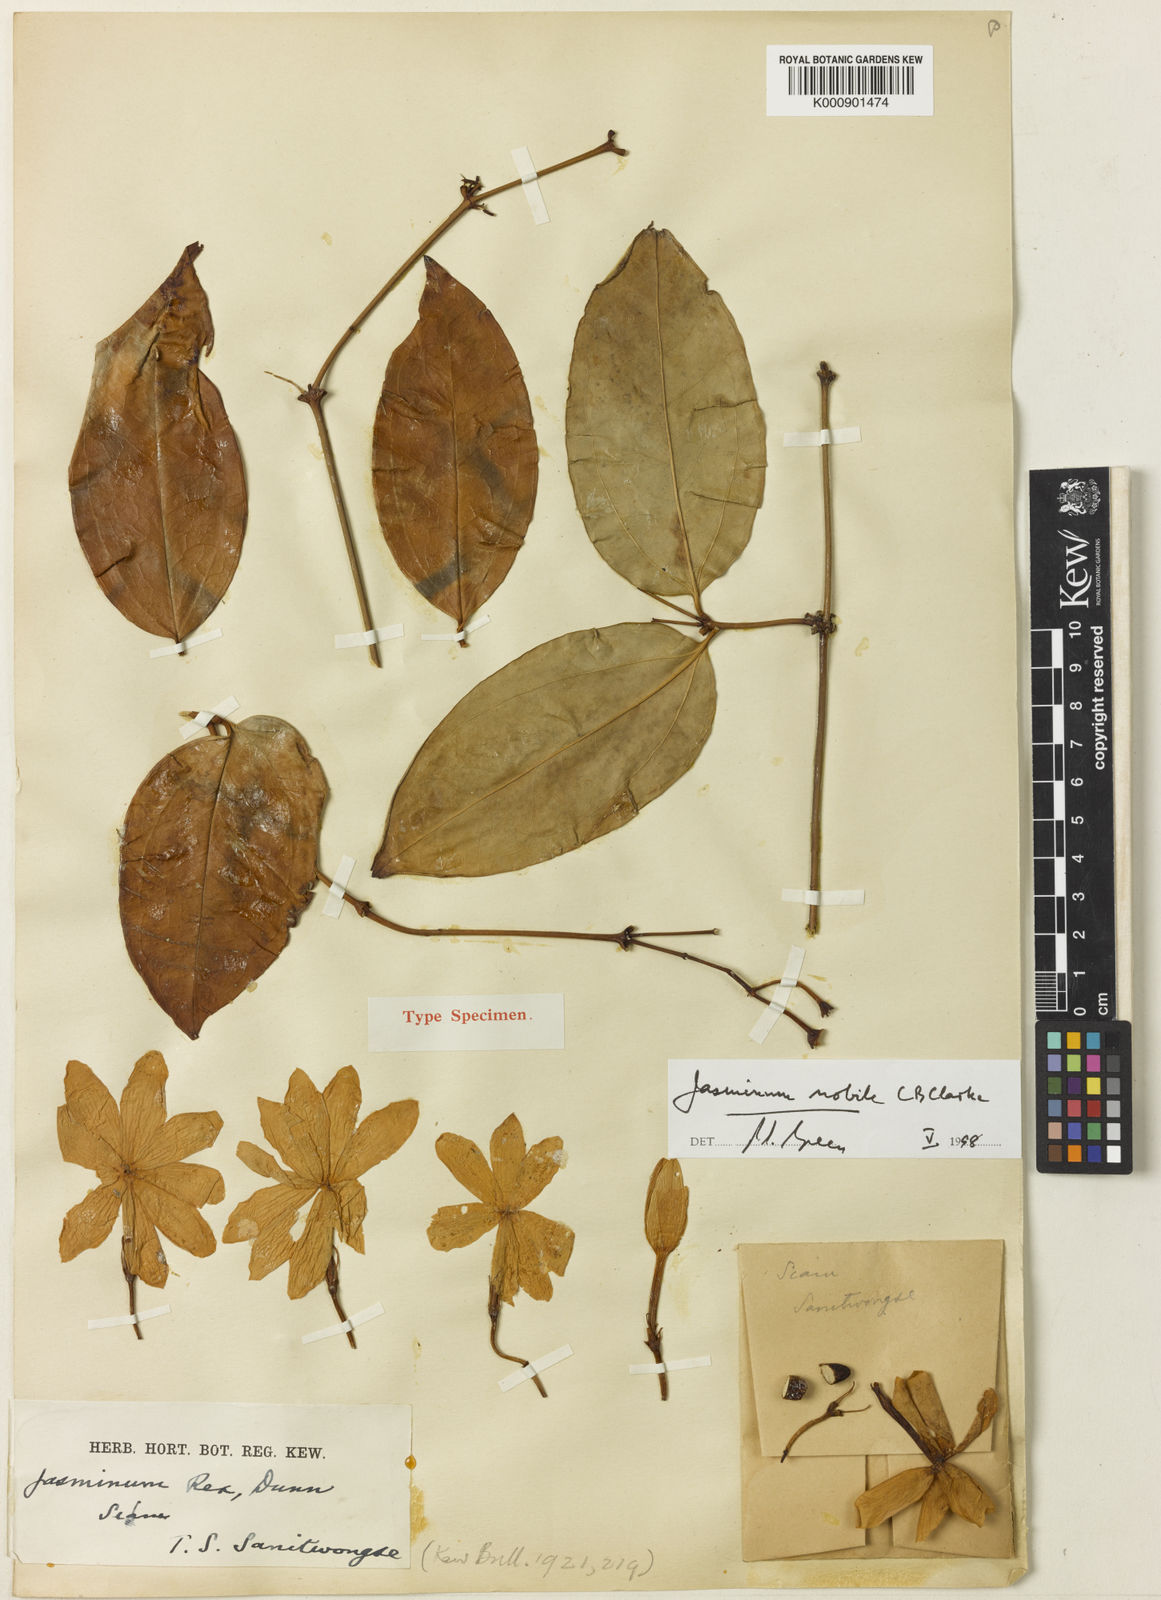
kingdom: Plantae
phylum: Tracheophyta
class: Magnoliopsida
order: Lamiales
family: Oleaceae
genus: Jasminum
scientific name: Jasminum nobile
